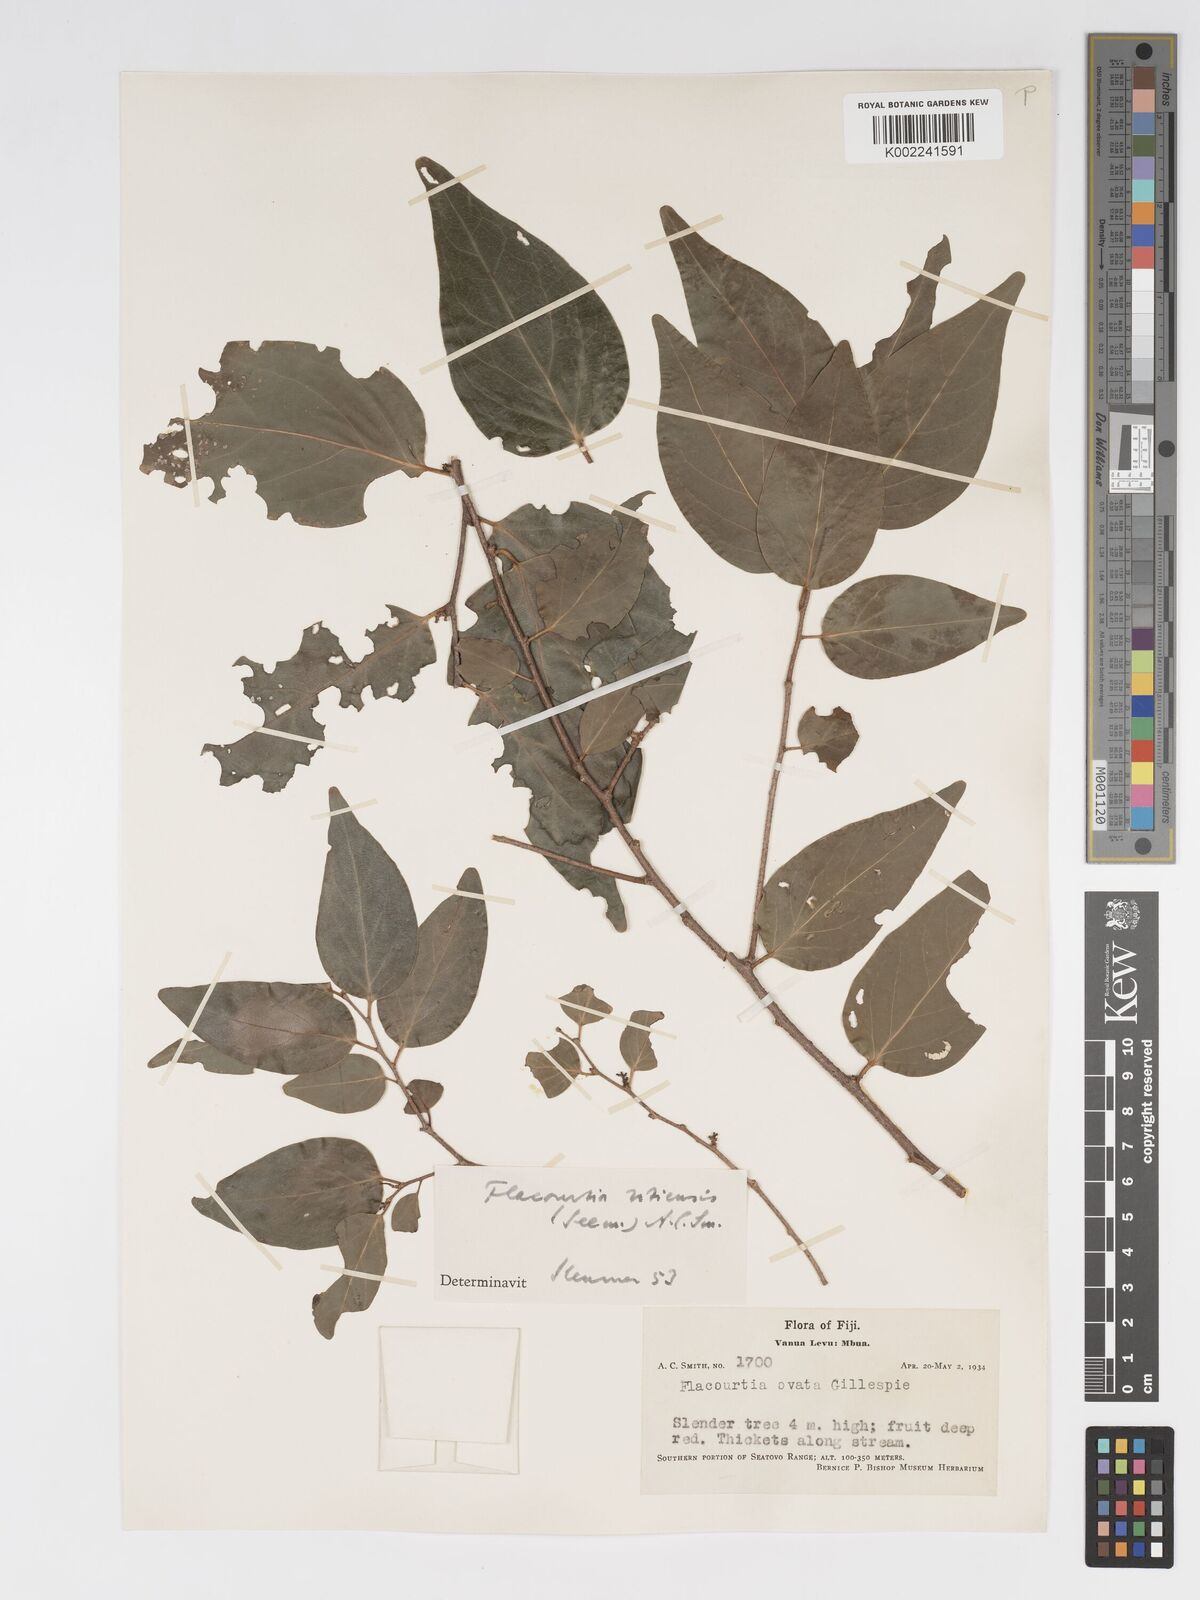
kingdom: Plantae
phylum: Tracheophyta
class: Magnoliopsida
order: Malpighiales
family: Salicaceae
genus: Flacourtia
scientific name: Flacourtia vitiensis
